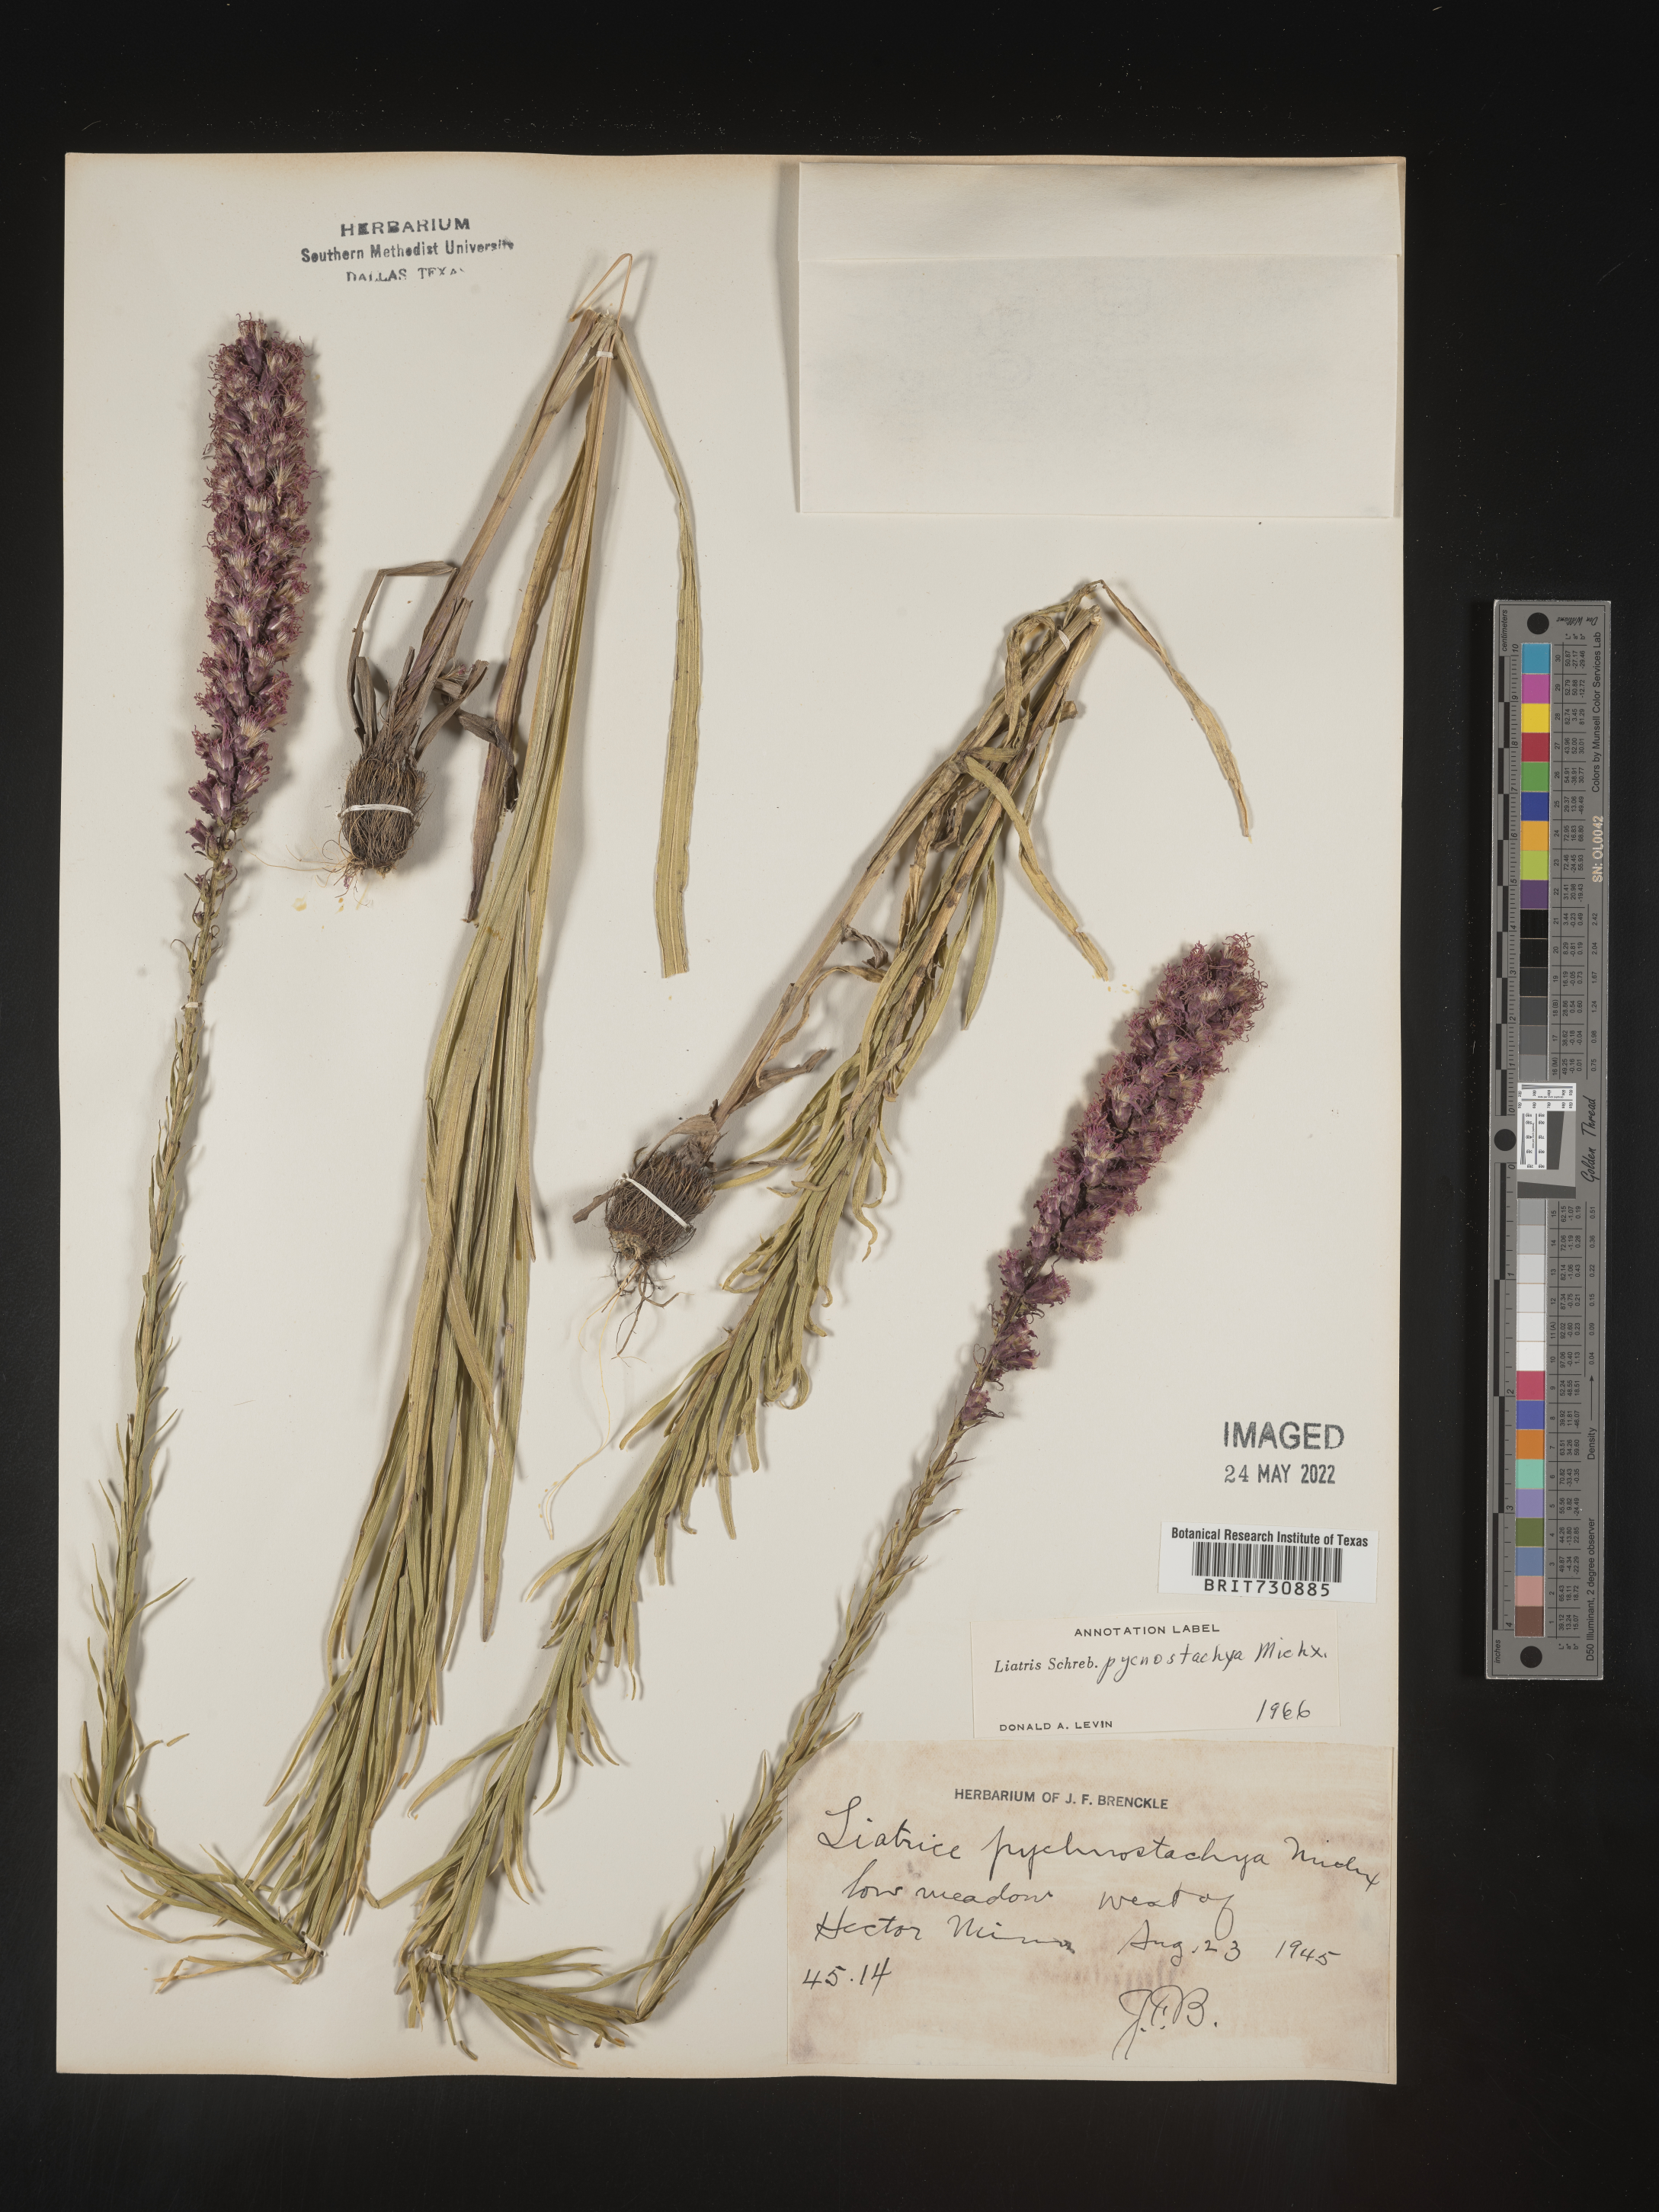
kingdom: Plantae
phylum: Tracheophyta
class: Magnoliopsida
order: Asterales
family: Asteraceae
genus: Liatris
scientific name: Liatris pycnostachya
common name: Cattail gayfeather
